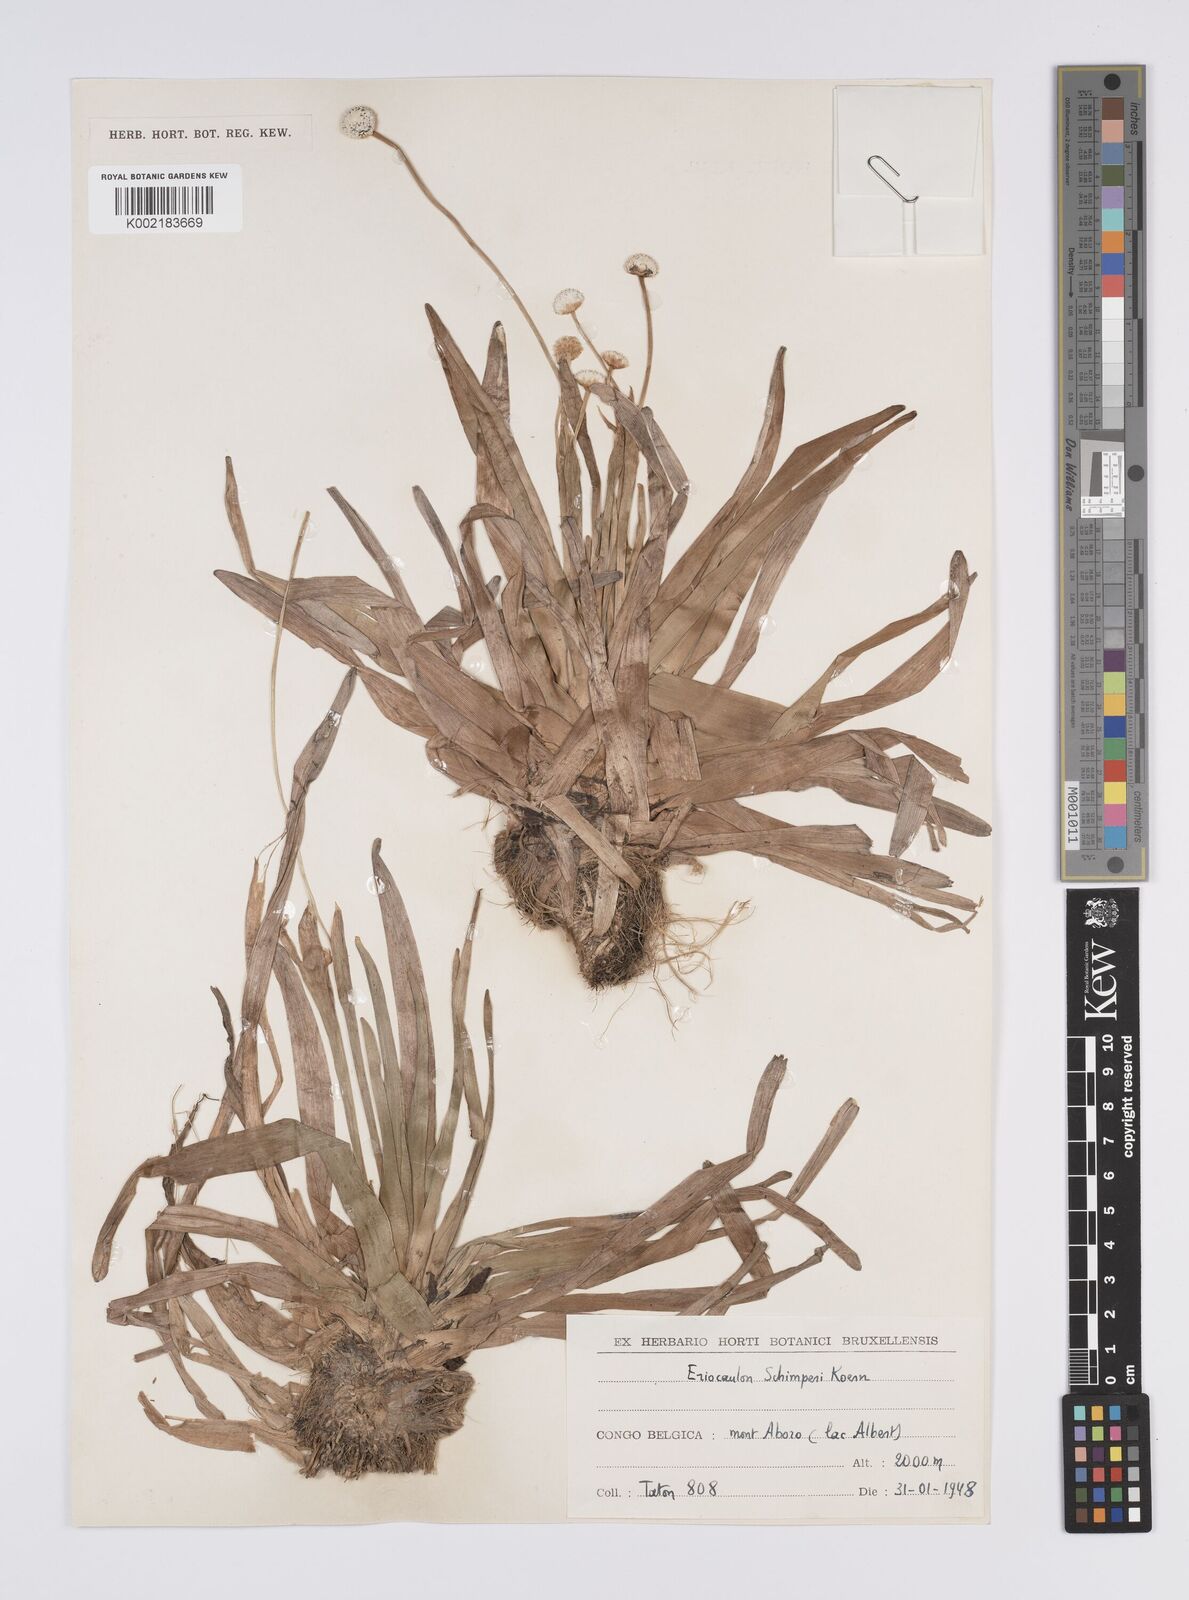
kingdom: Plantae
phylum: Tracheophyta
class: Liliopsida
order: Poales
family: Eriocaulaceae
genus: Eriocaulon
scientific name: Eriocaulon schimperi
